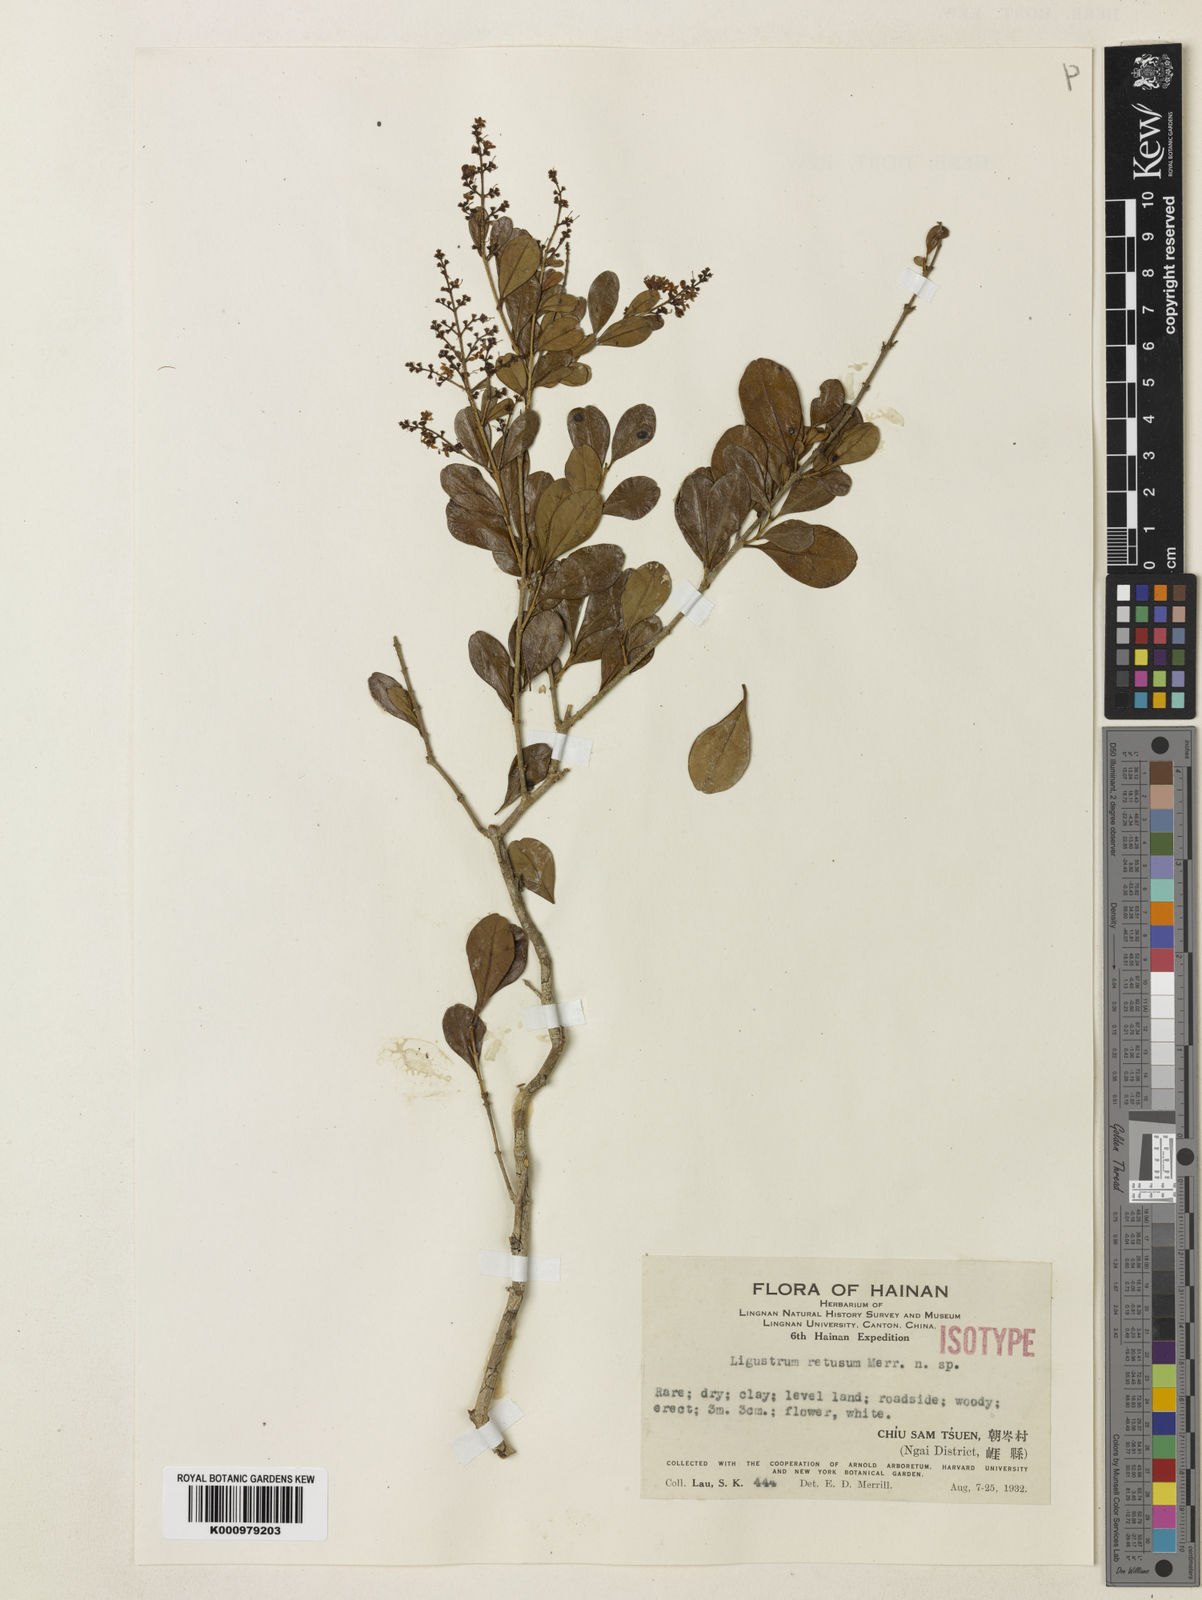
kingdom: Plantae
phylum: Tracheophyta
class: Magnoliopsida
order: Lamiales
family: Oleaceae
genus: Ligustrum
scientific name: Ligustrum retusum
